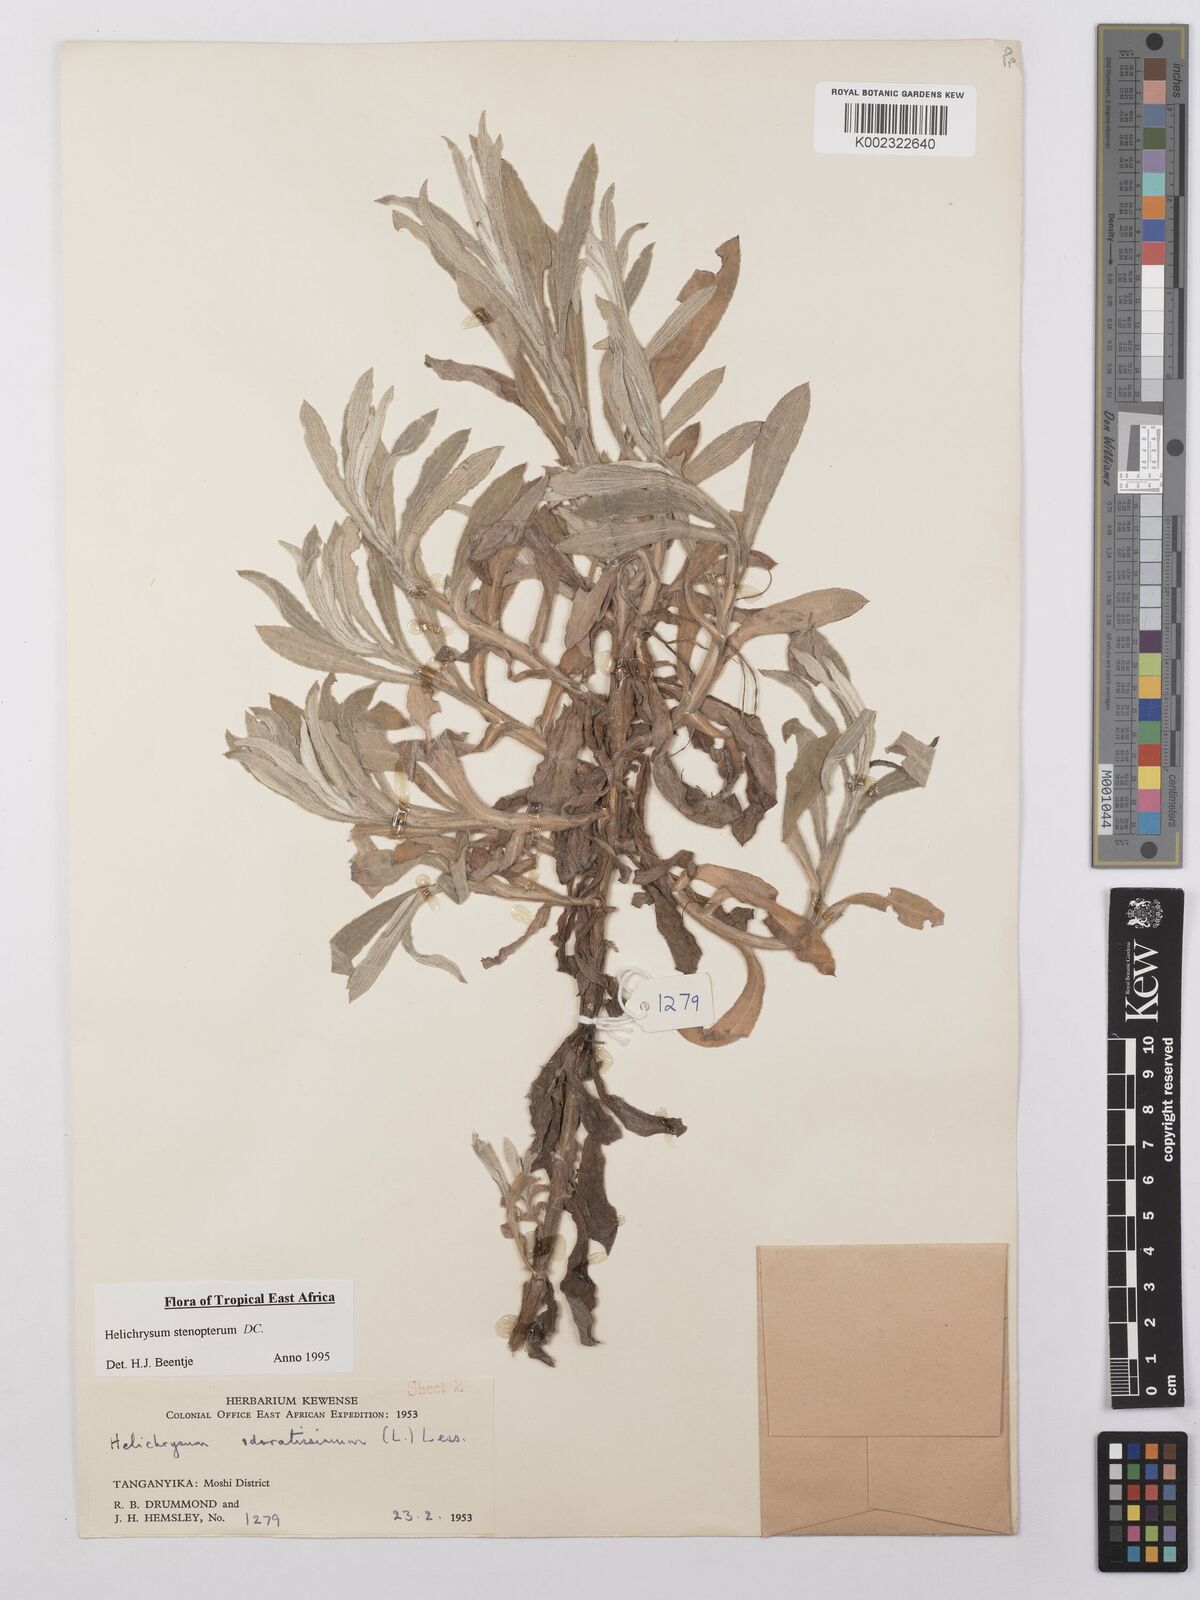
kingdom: Plantae
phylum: Tracheophyta
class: Magnoliopsida
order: Asterales
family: Asteraceae
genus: Helichrysum
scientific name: Helichrysum stenopterum
